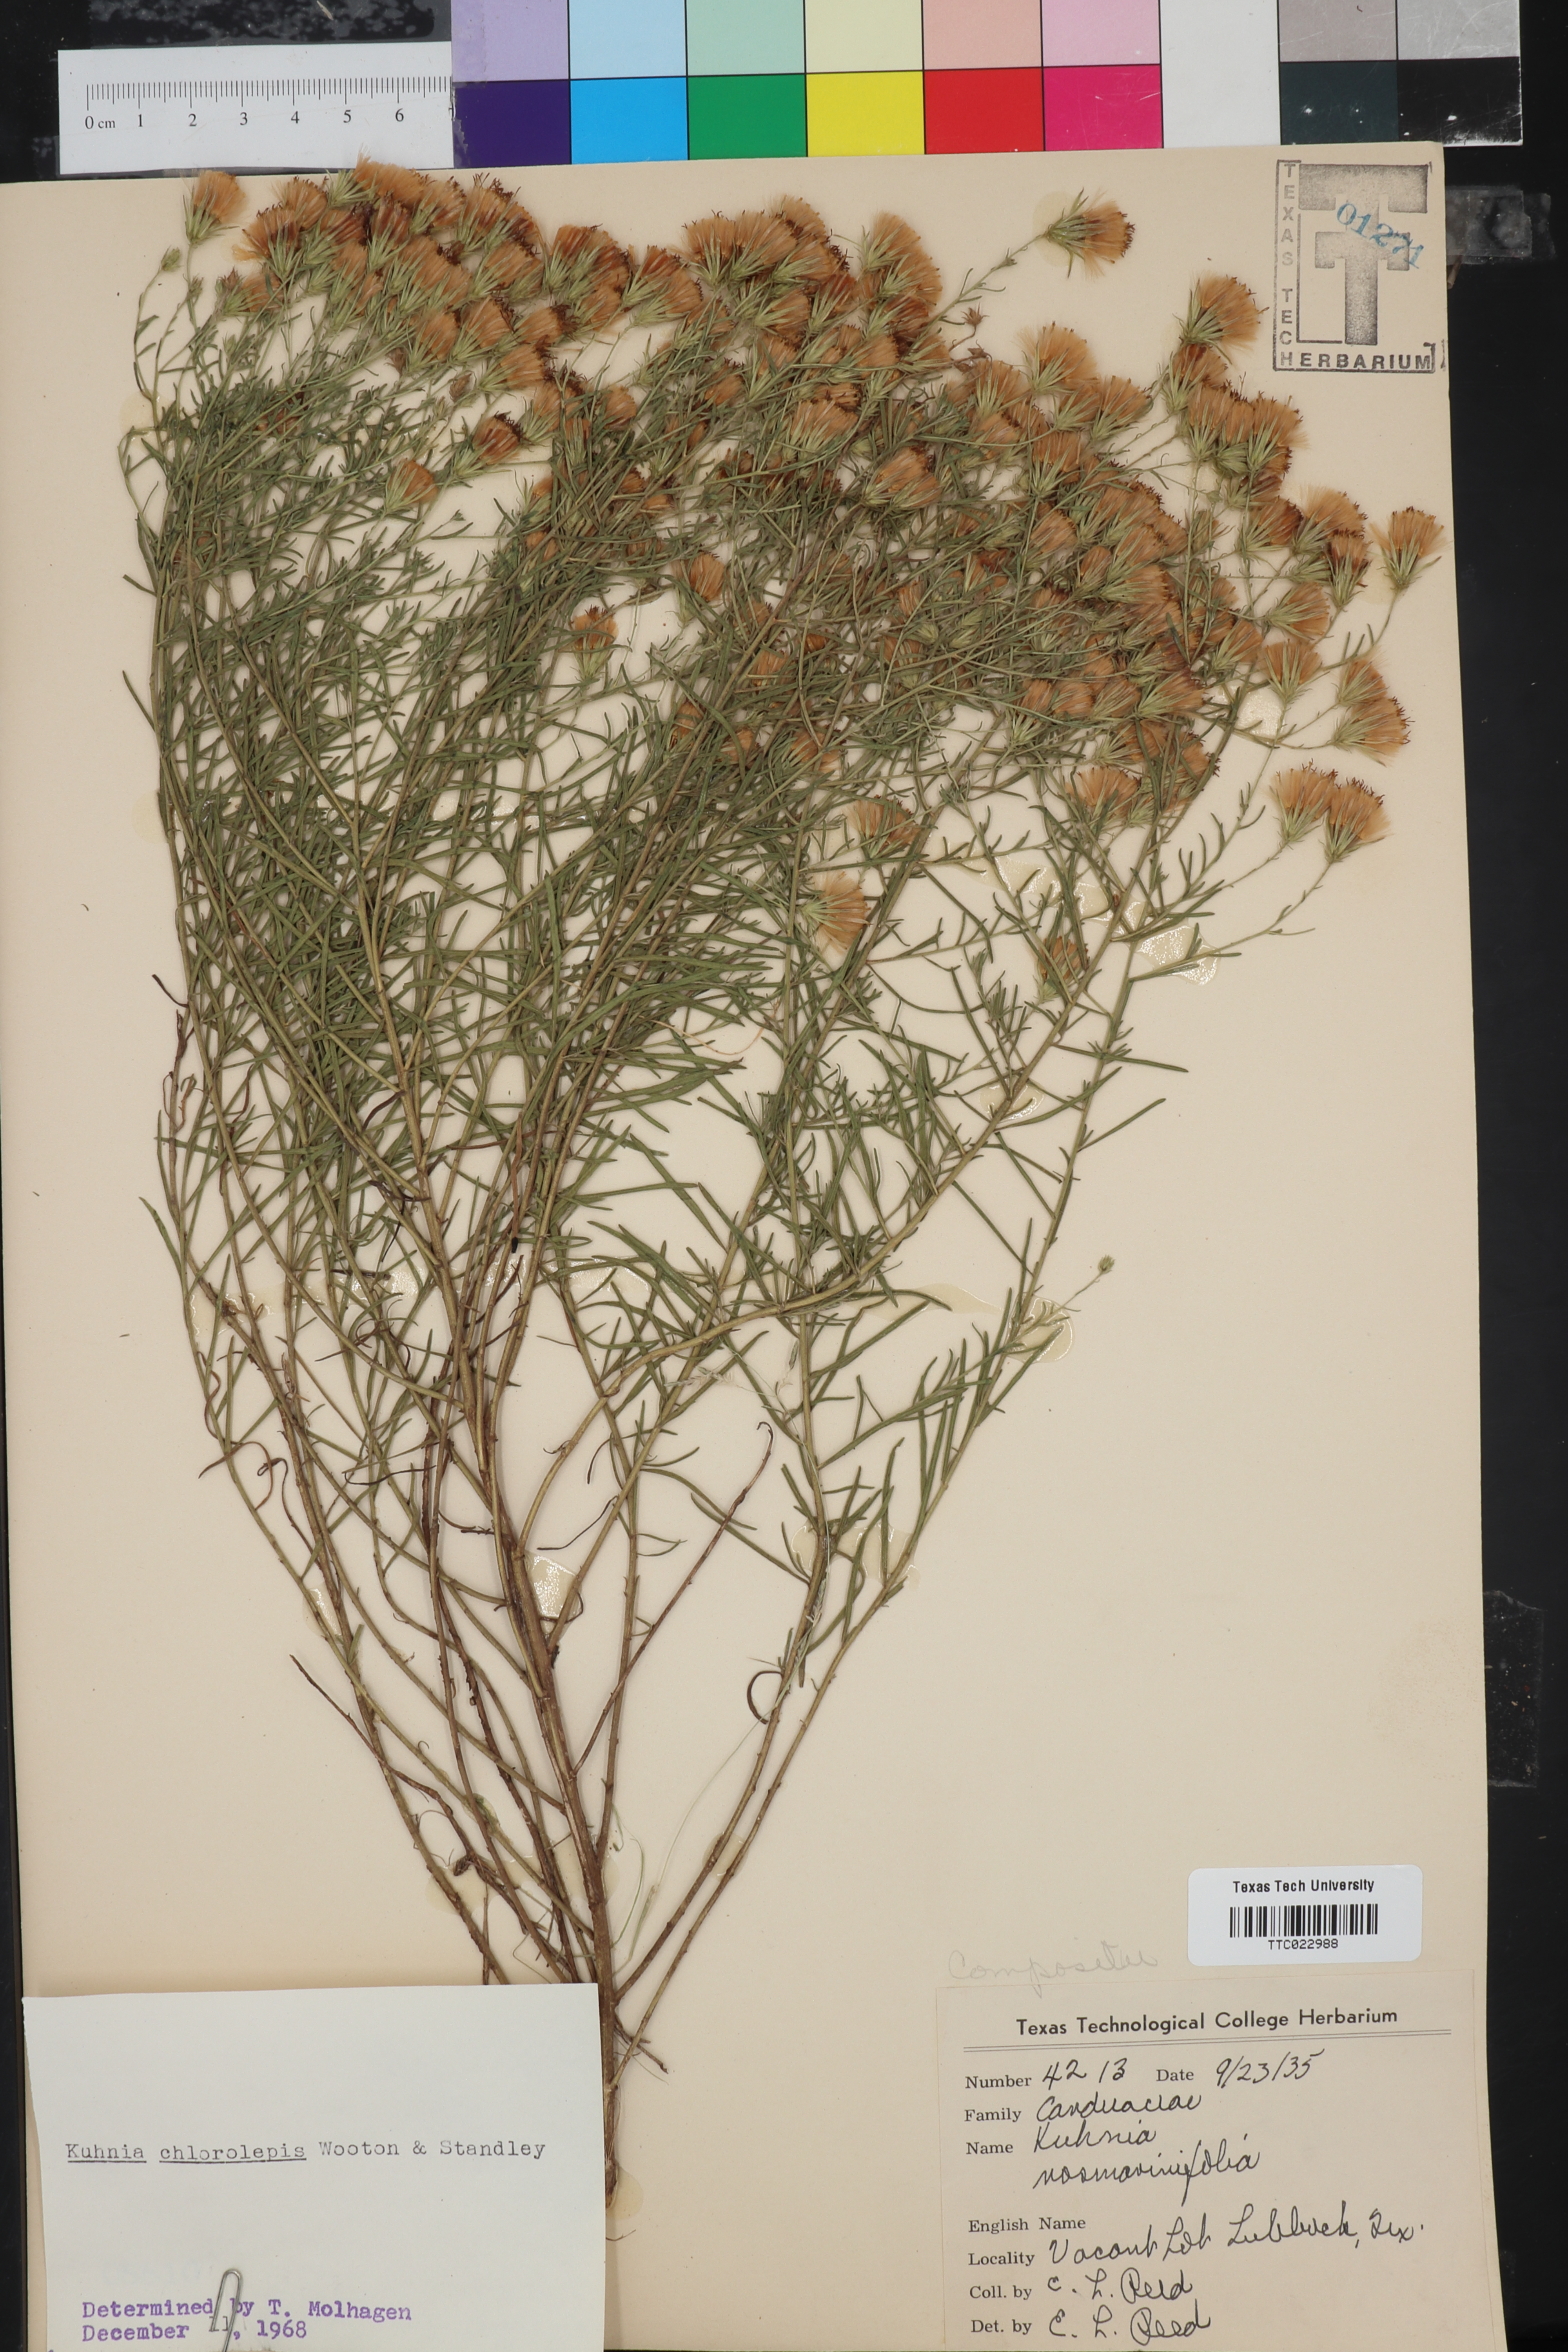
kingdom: Plantae
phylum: Tracheophyta
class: Magnoliopsida
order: Asterales
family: Asteraceae
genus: Brickellia
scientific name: Brickellia leptophylla
